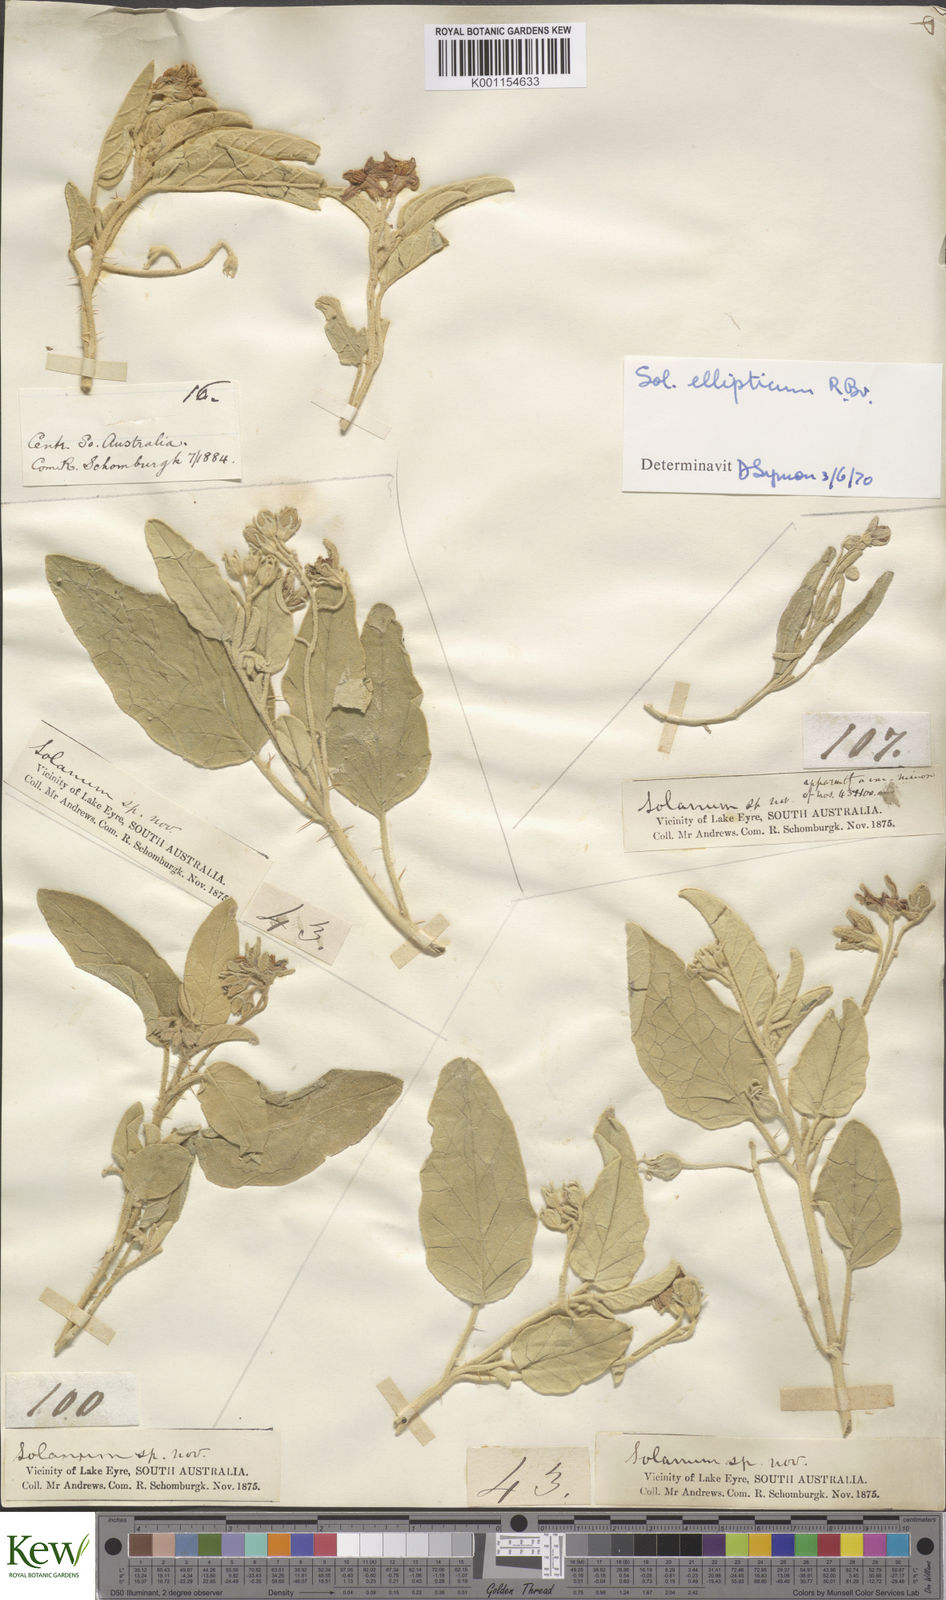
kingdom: Plantae
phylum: Tracheophyta
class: Magnoliopsida
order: Solanales
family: Solanaceae
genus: Solanum
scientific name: Solanum ellipticum
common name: Potato-bush
